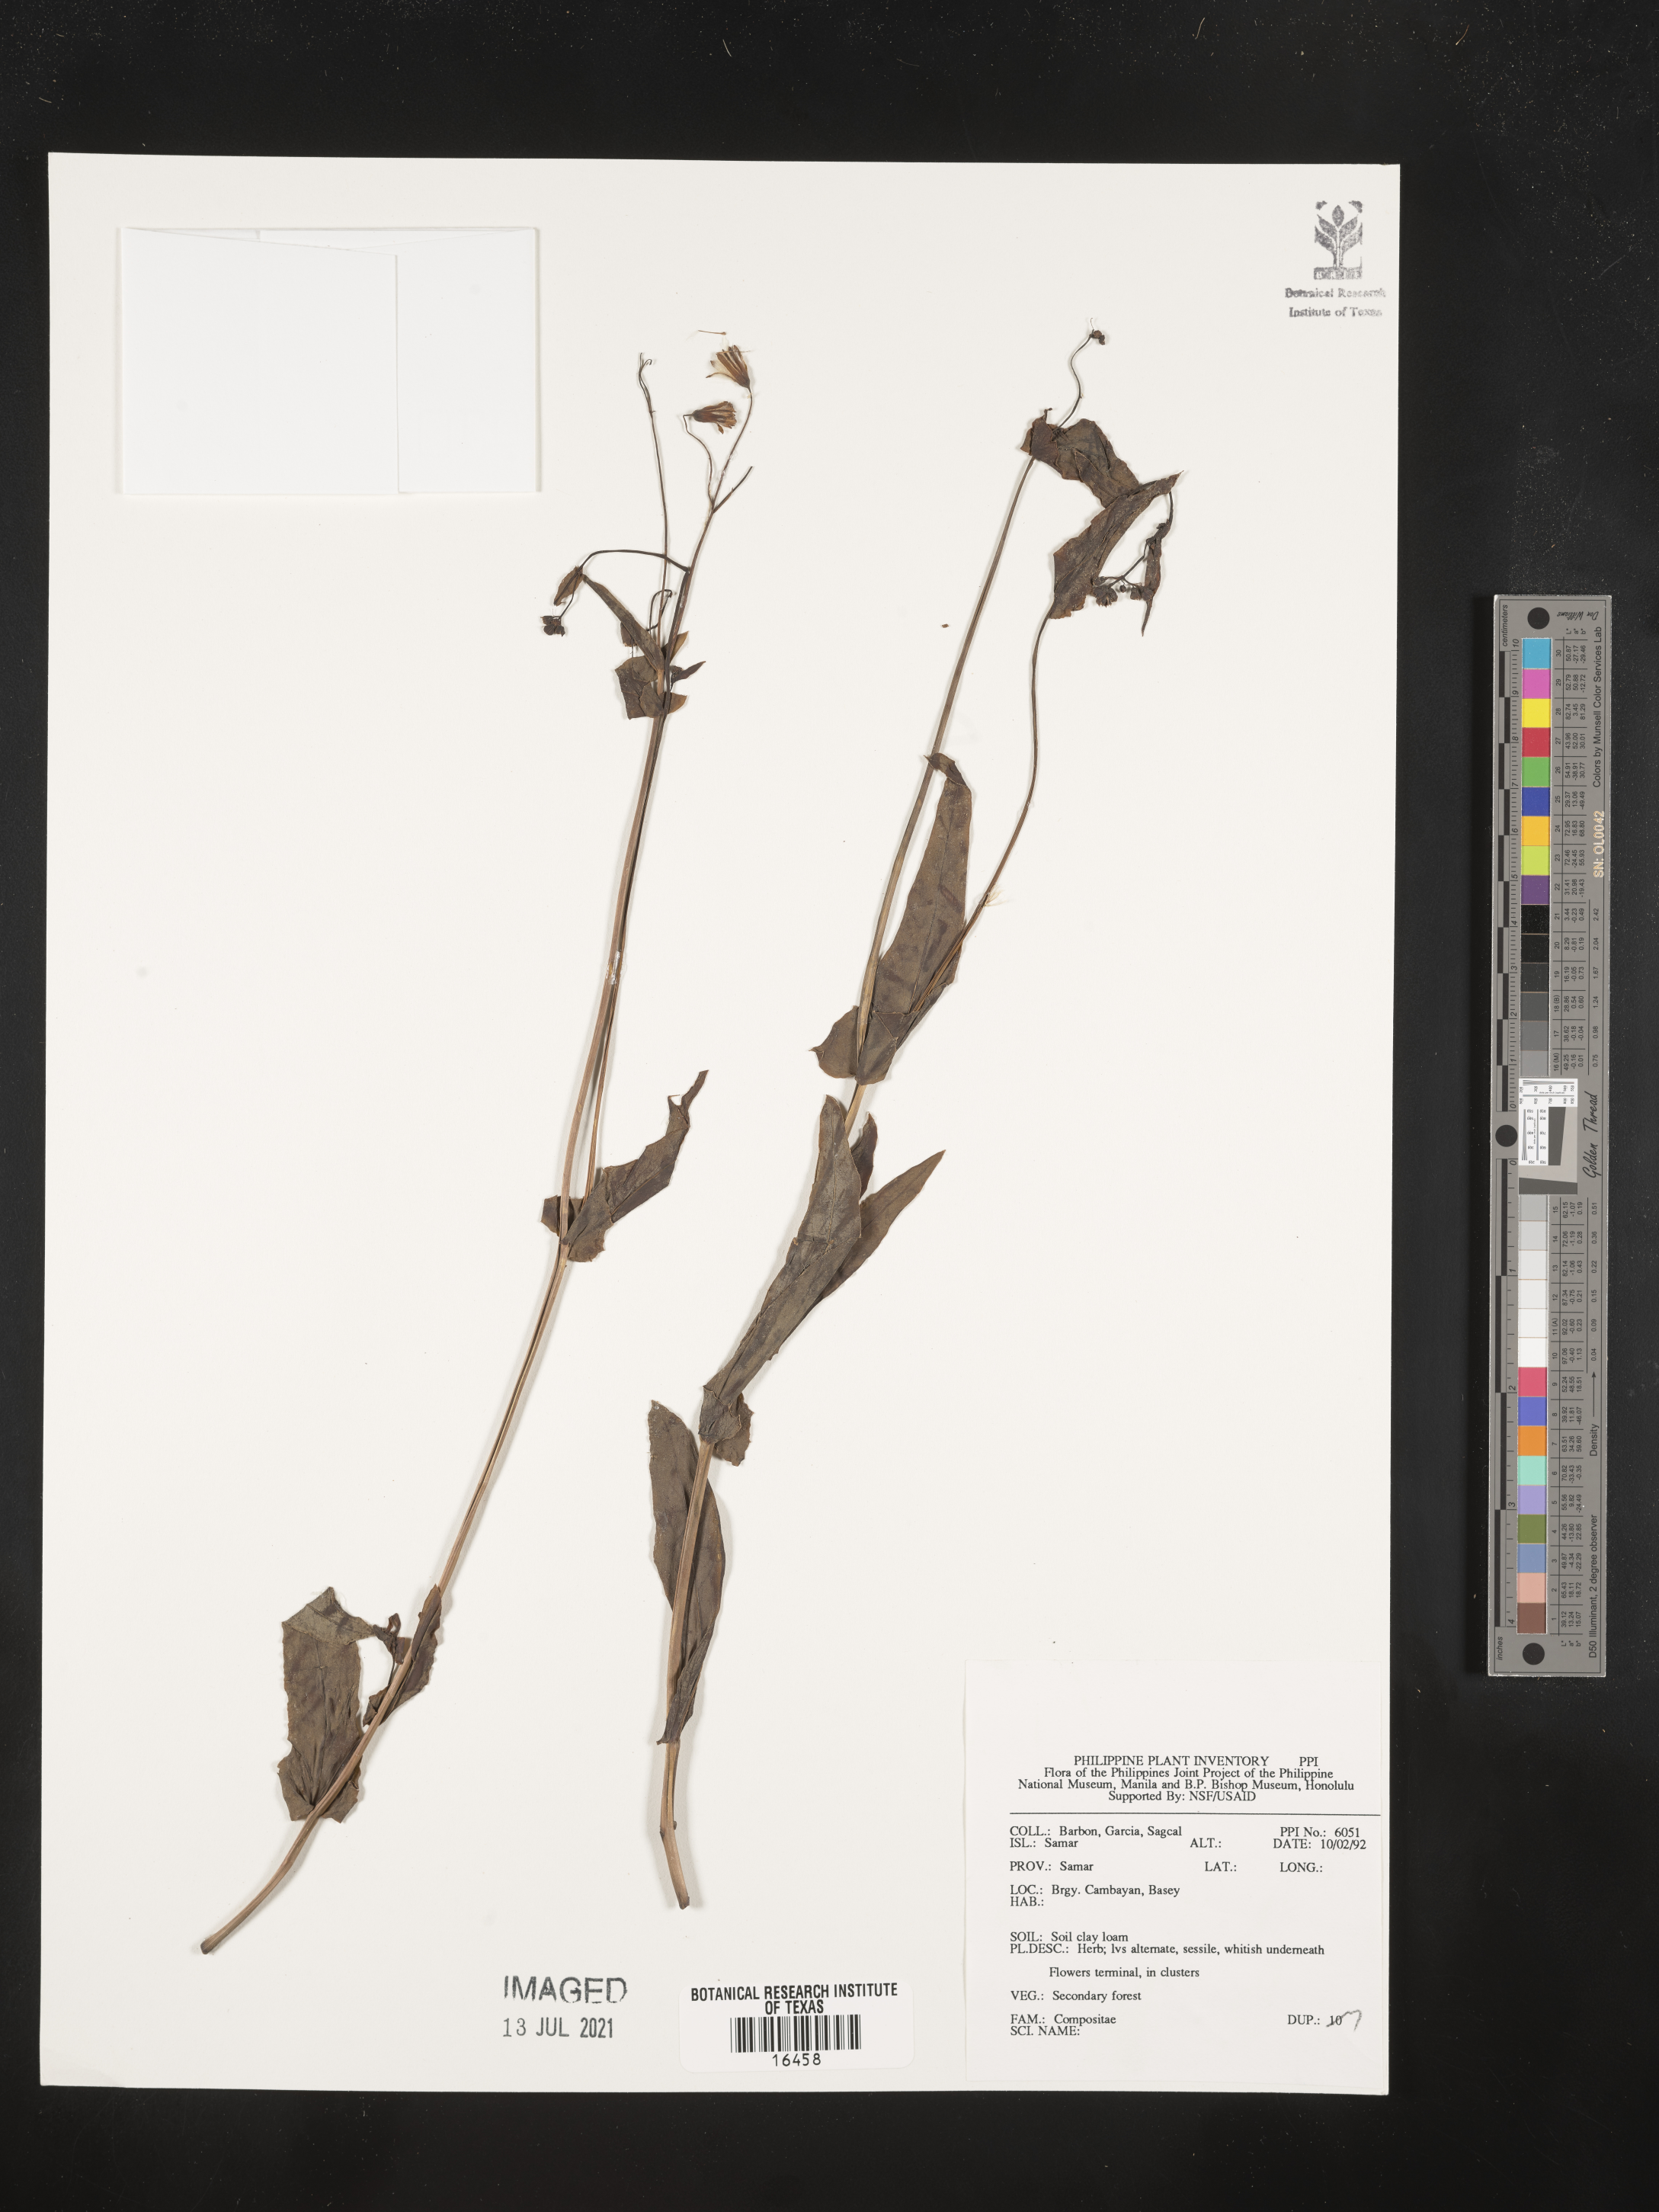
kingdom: Plantae
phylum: Tracheophyta
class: Magnoliopsida
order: Asterales
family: Asteraceae
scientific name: Asteraceae
